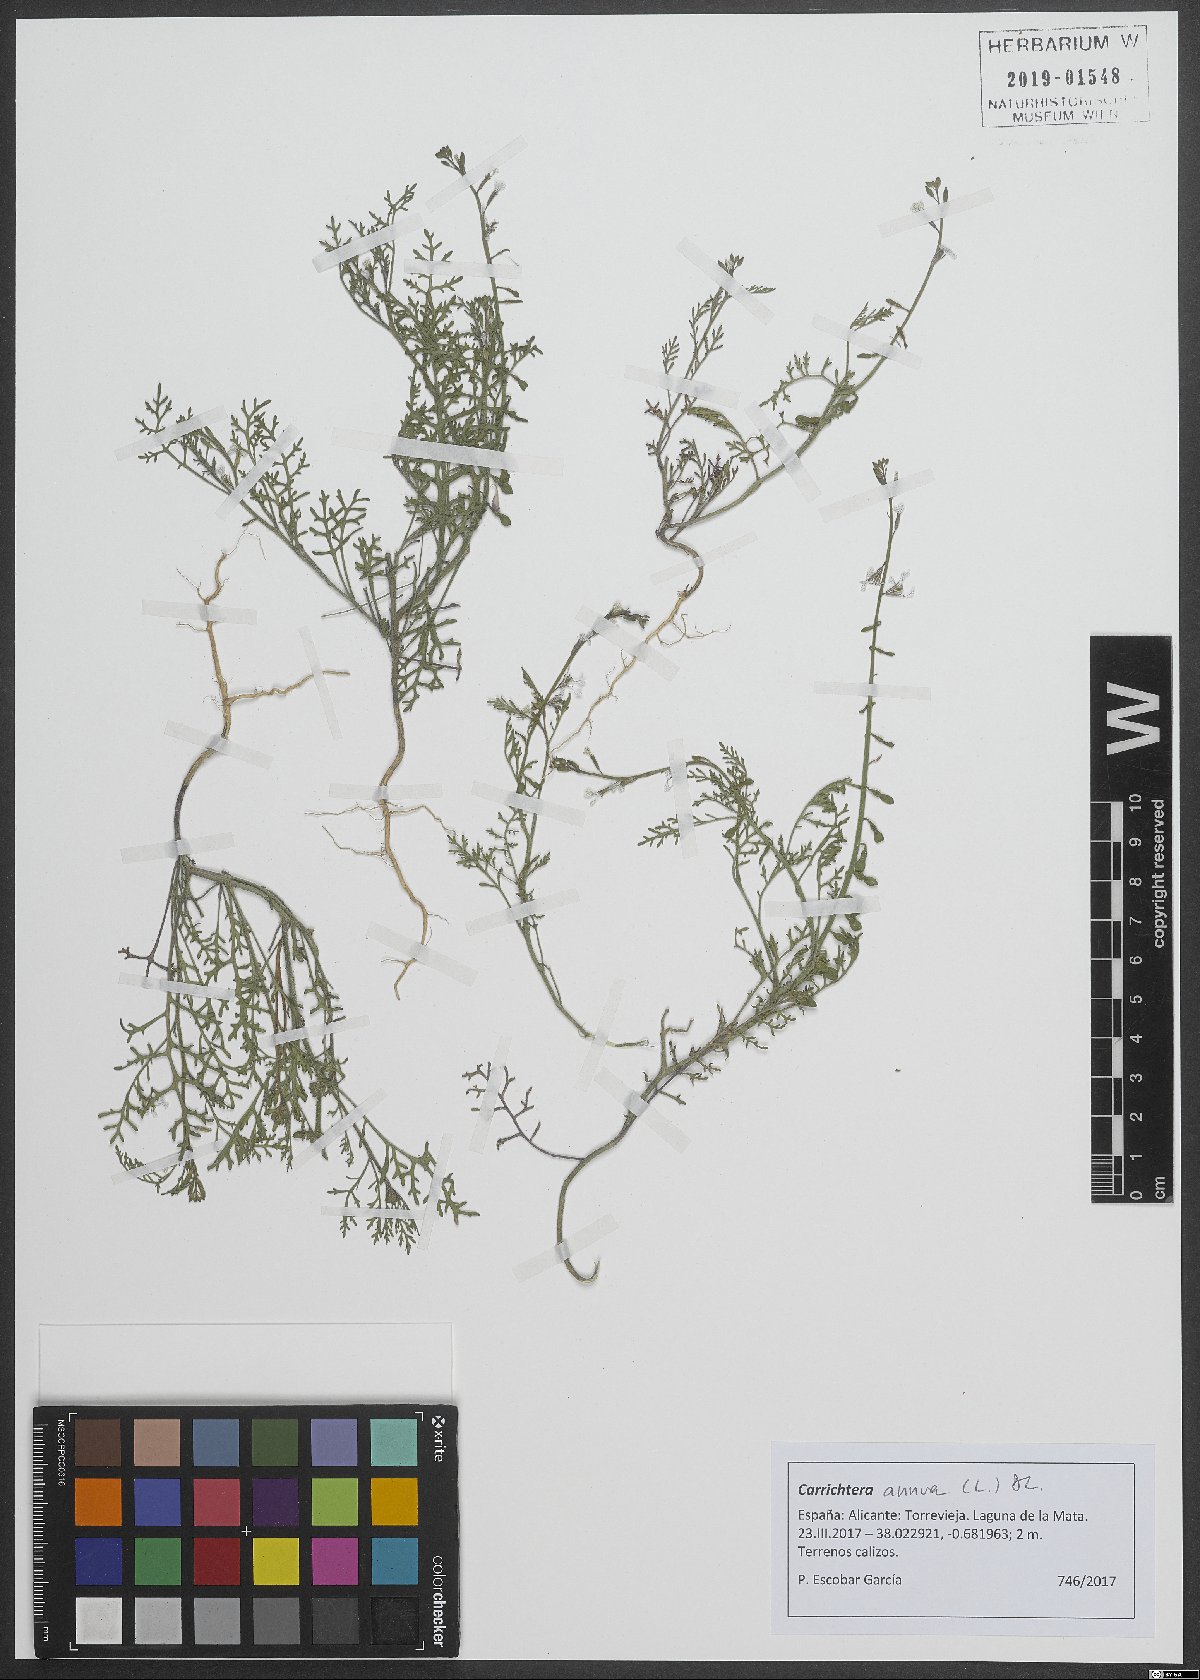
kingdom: Plantae
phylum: Tracheophyta
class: Magnoliopsida
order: Brassicales
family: Brassicaceae
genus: Carrichtera
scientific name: Carrichtera annua
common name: Cress rocket
